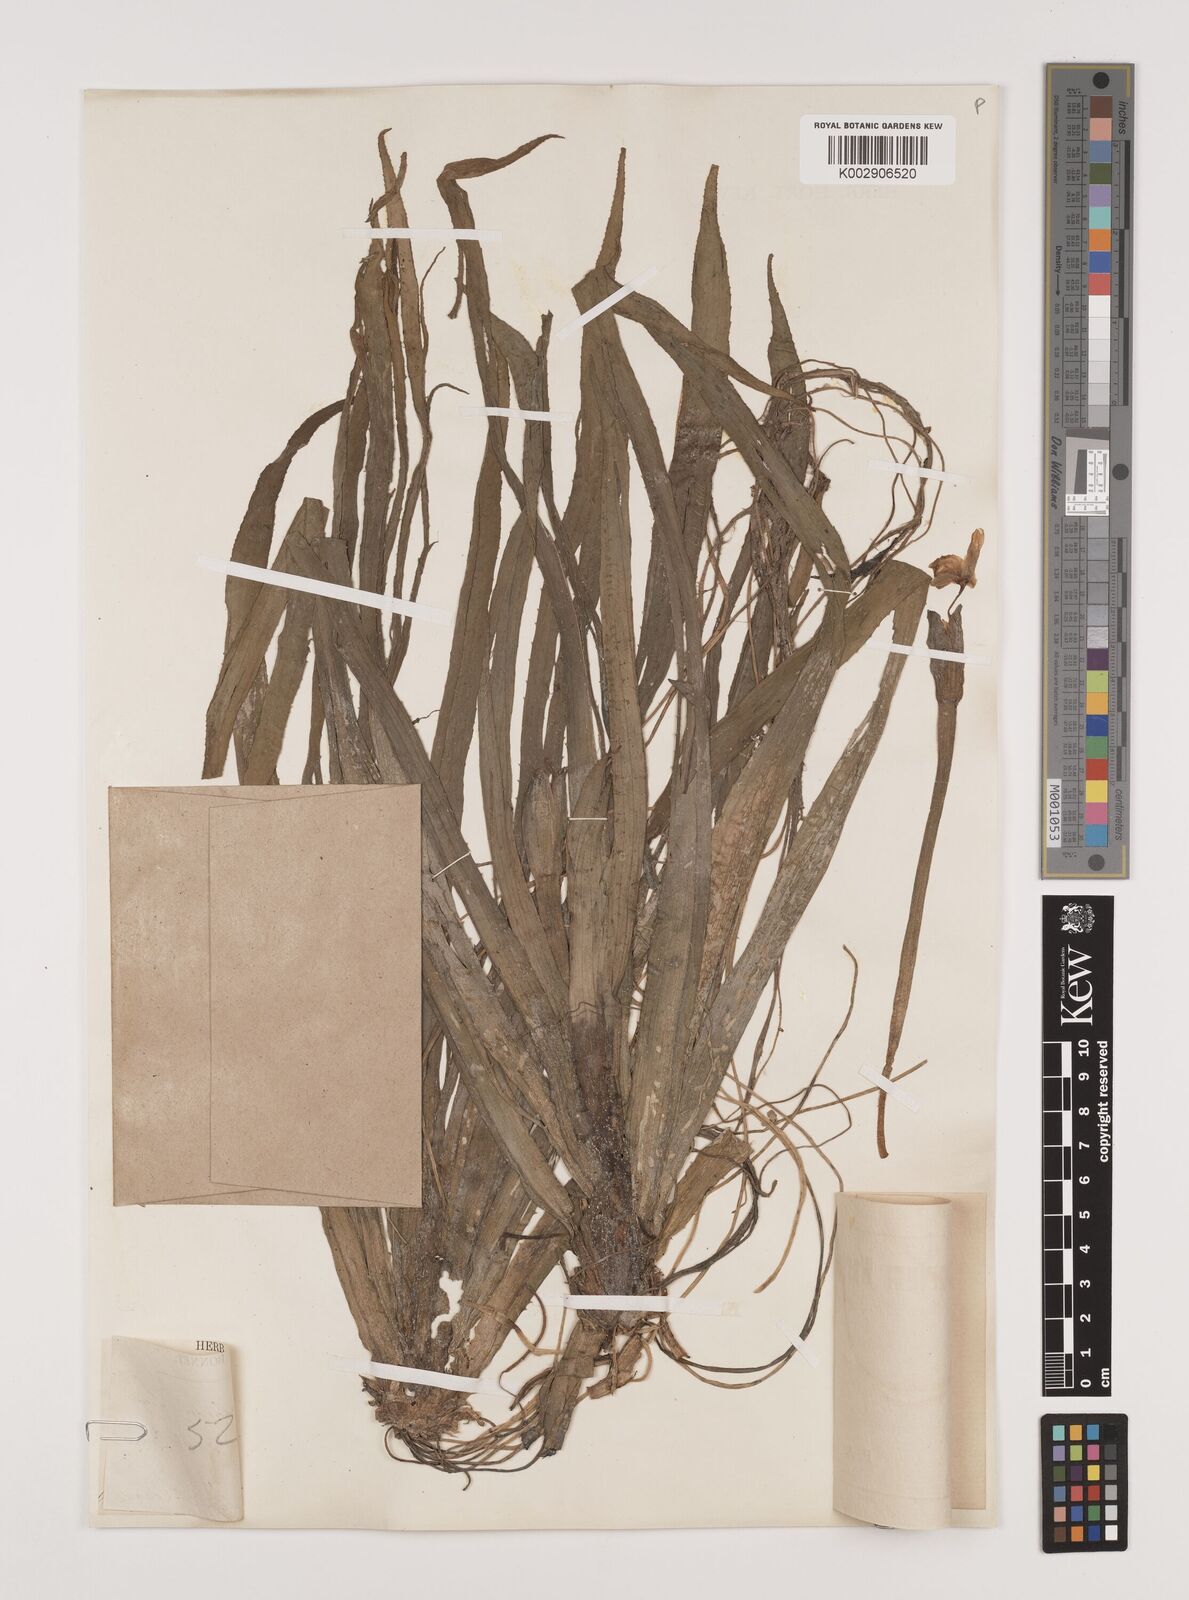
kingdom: Plantae
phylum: Tracheophyta
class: Liliopsida
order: Alismatales
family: Hydrocharitaceae
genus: Stratiotes
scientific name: Stratiotes aloides
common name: Water-soldier
